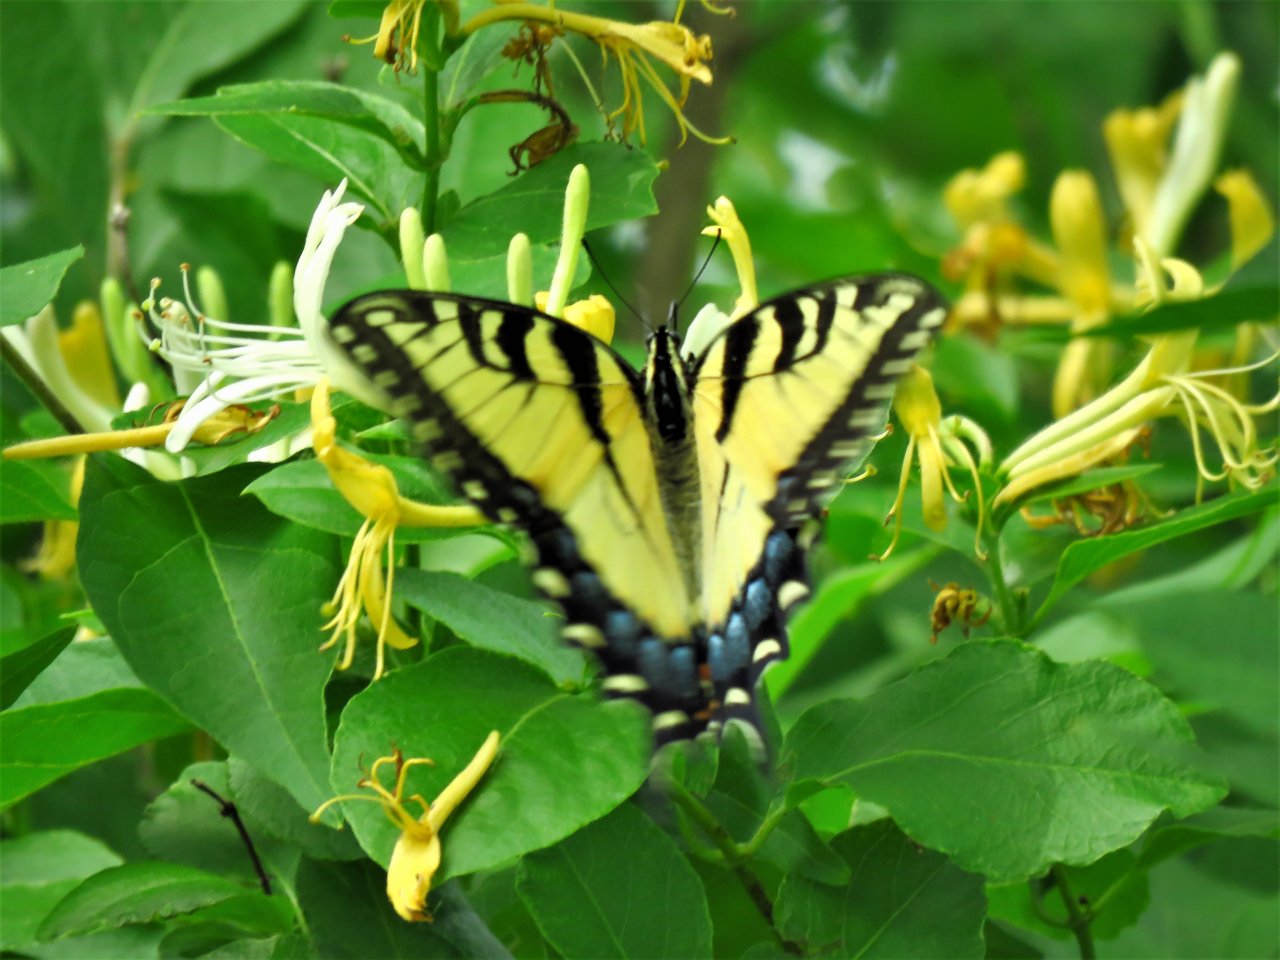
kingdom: Animalia
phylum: Arthropoda
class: Insecta
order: Lepidoptera
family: Papilionidae
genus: Pterourus
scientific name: Pterourus glaucus
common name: Eastern Tiger Swallowtail
